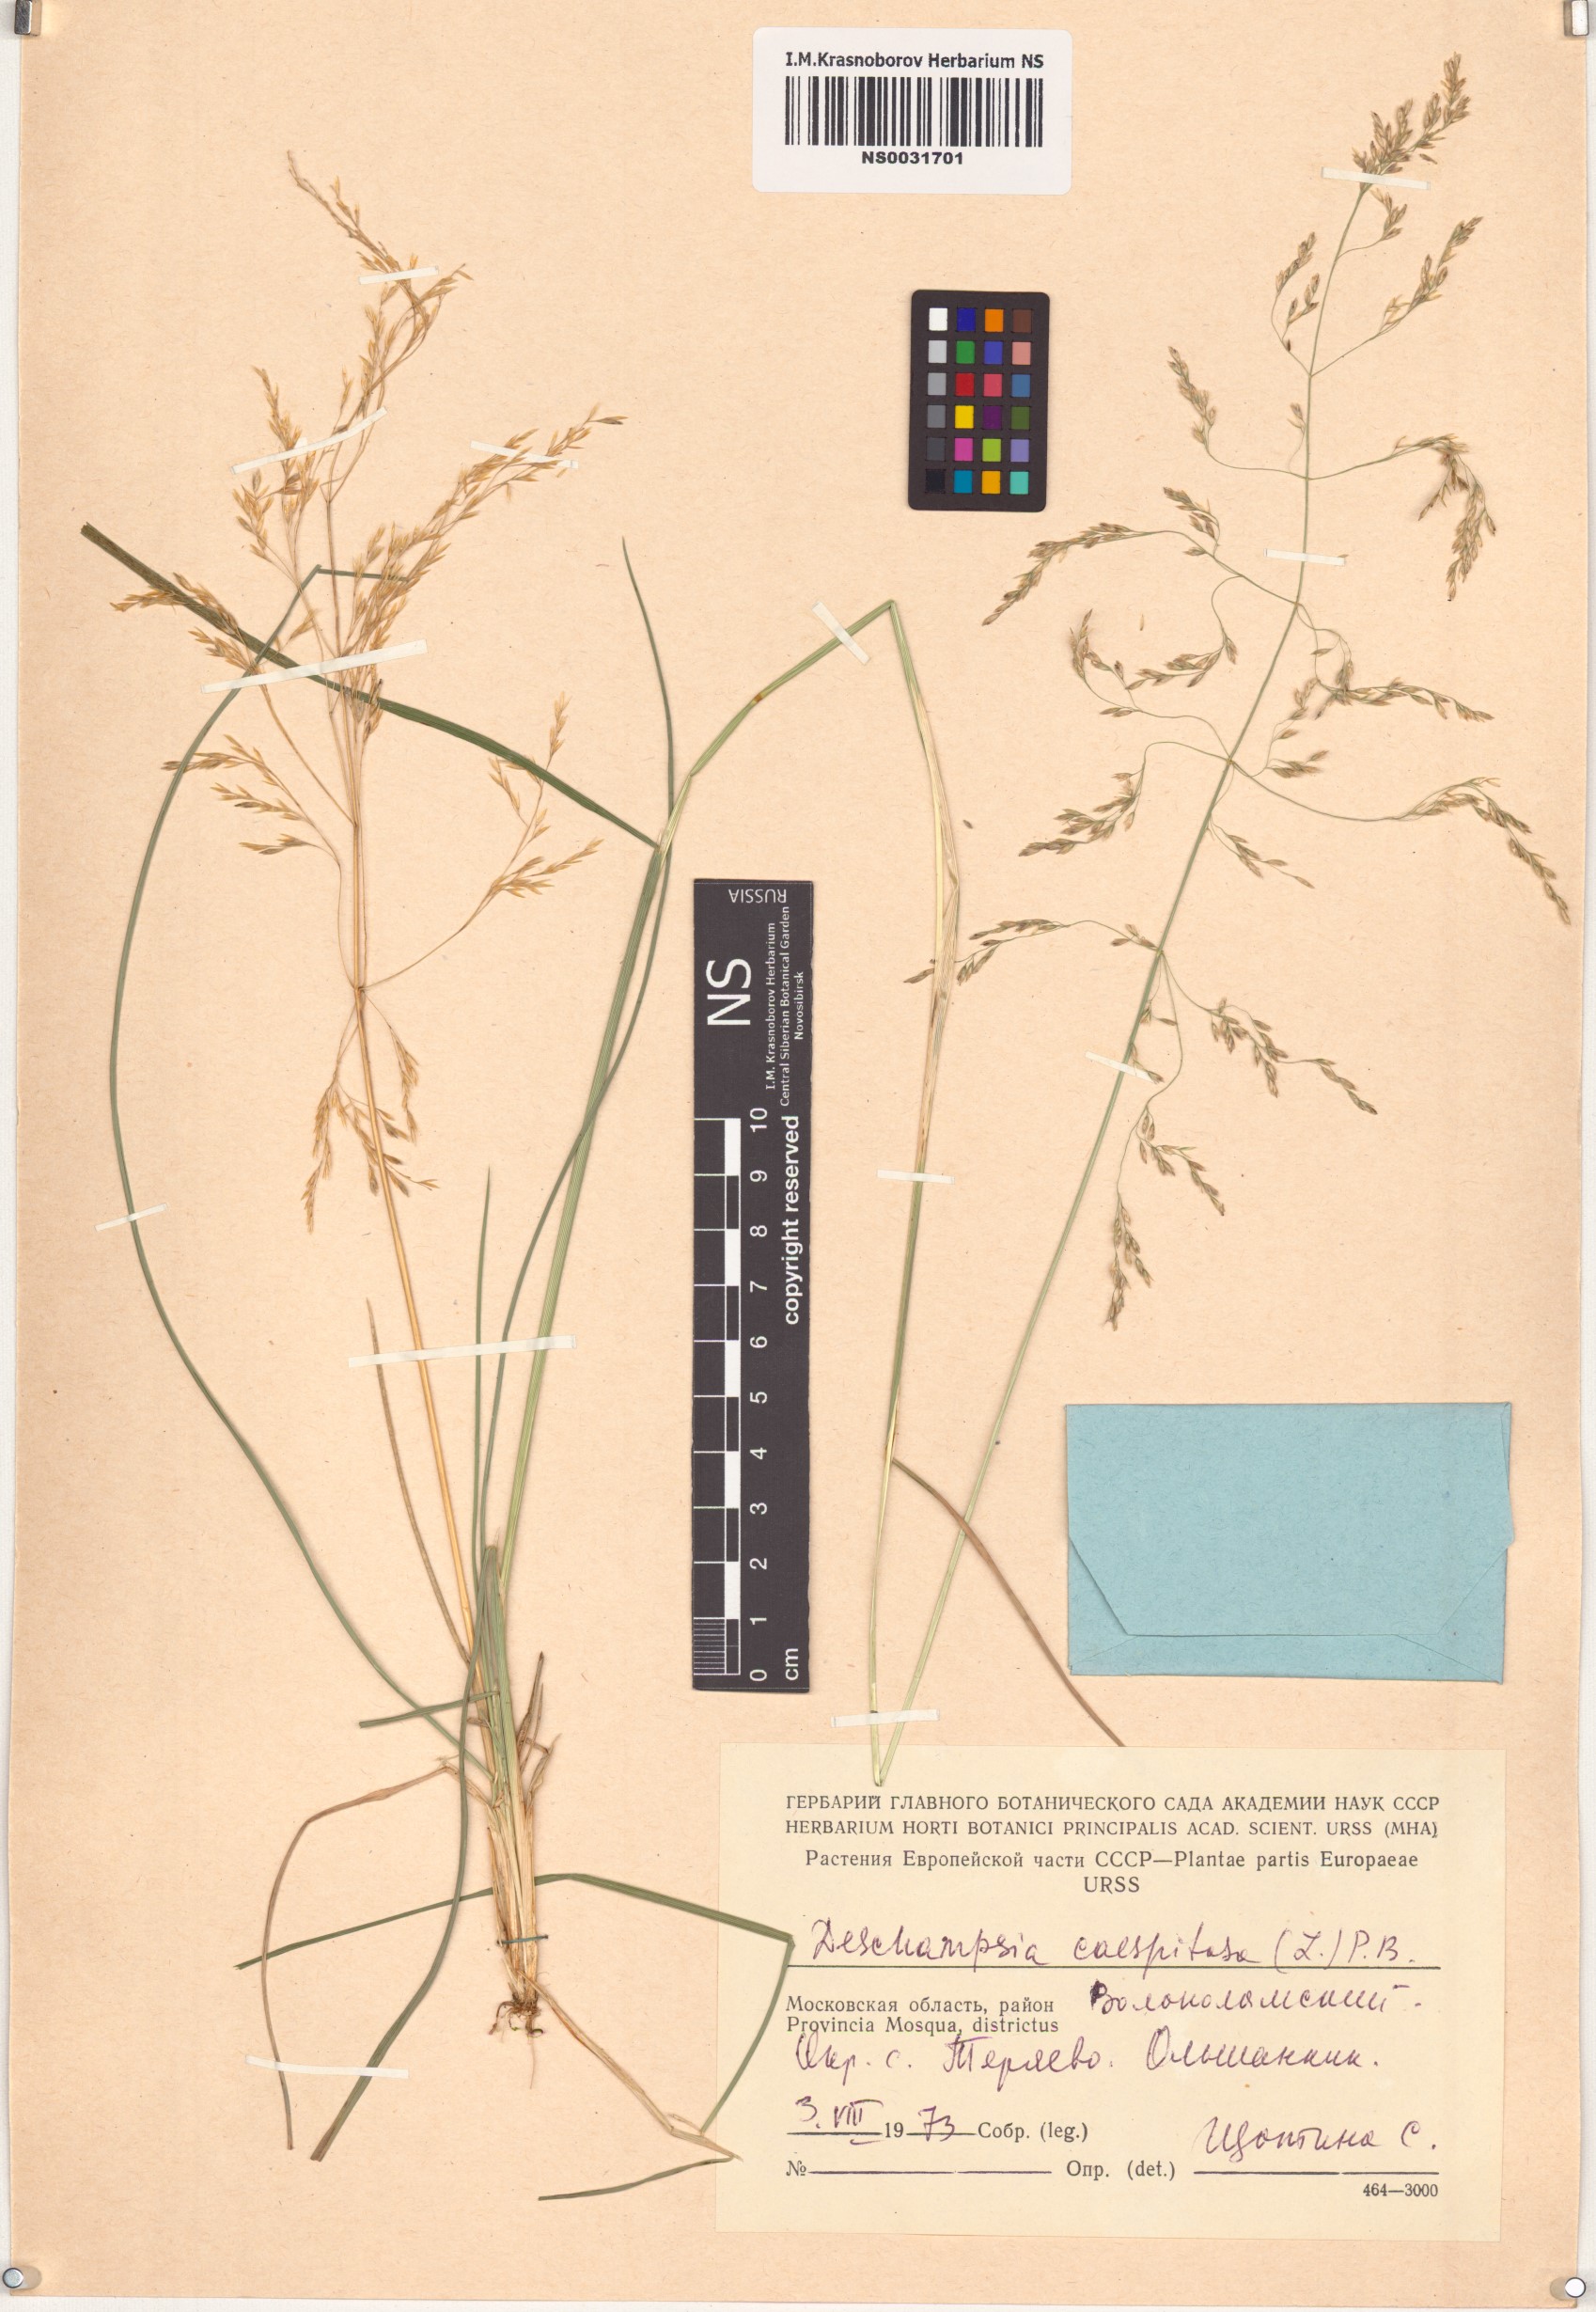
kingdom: Plantae
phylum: Tracheophyta
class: Liliopsida
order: Poales
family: Poaceae
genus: Deschampsia
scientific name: Deschampsia cespitosa
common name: Tufted hair-grass
